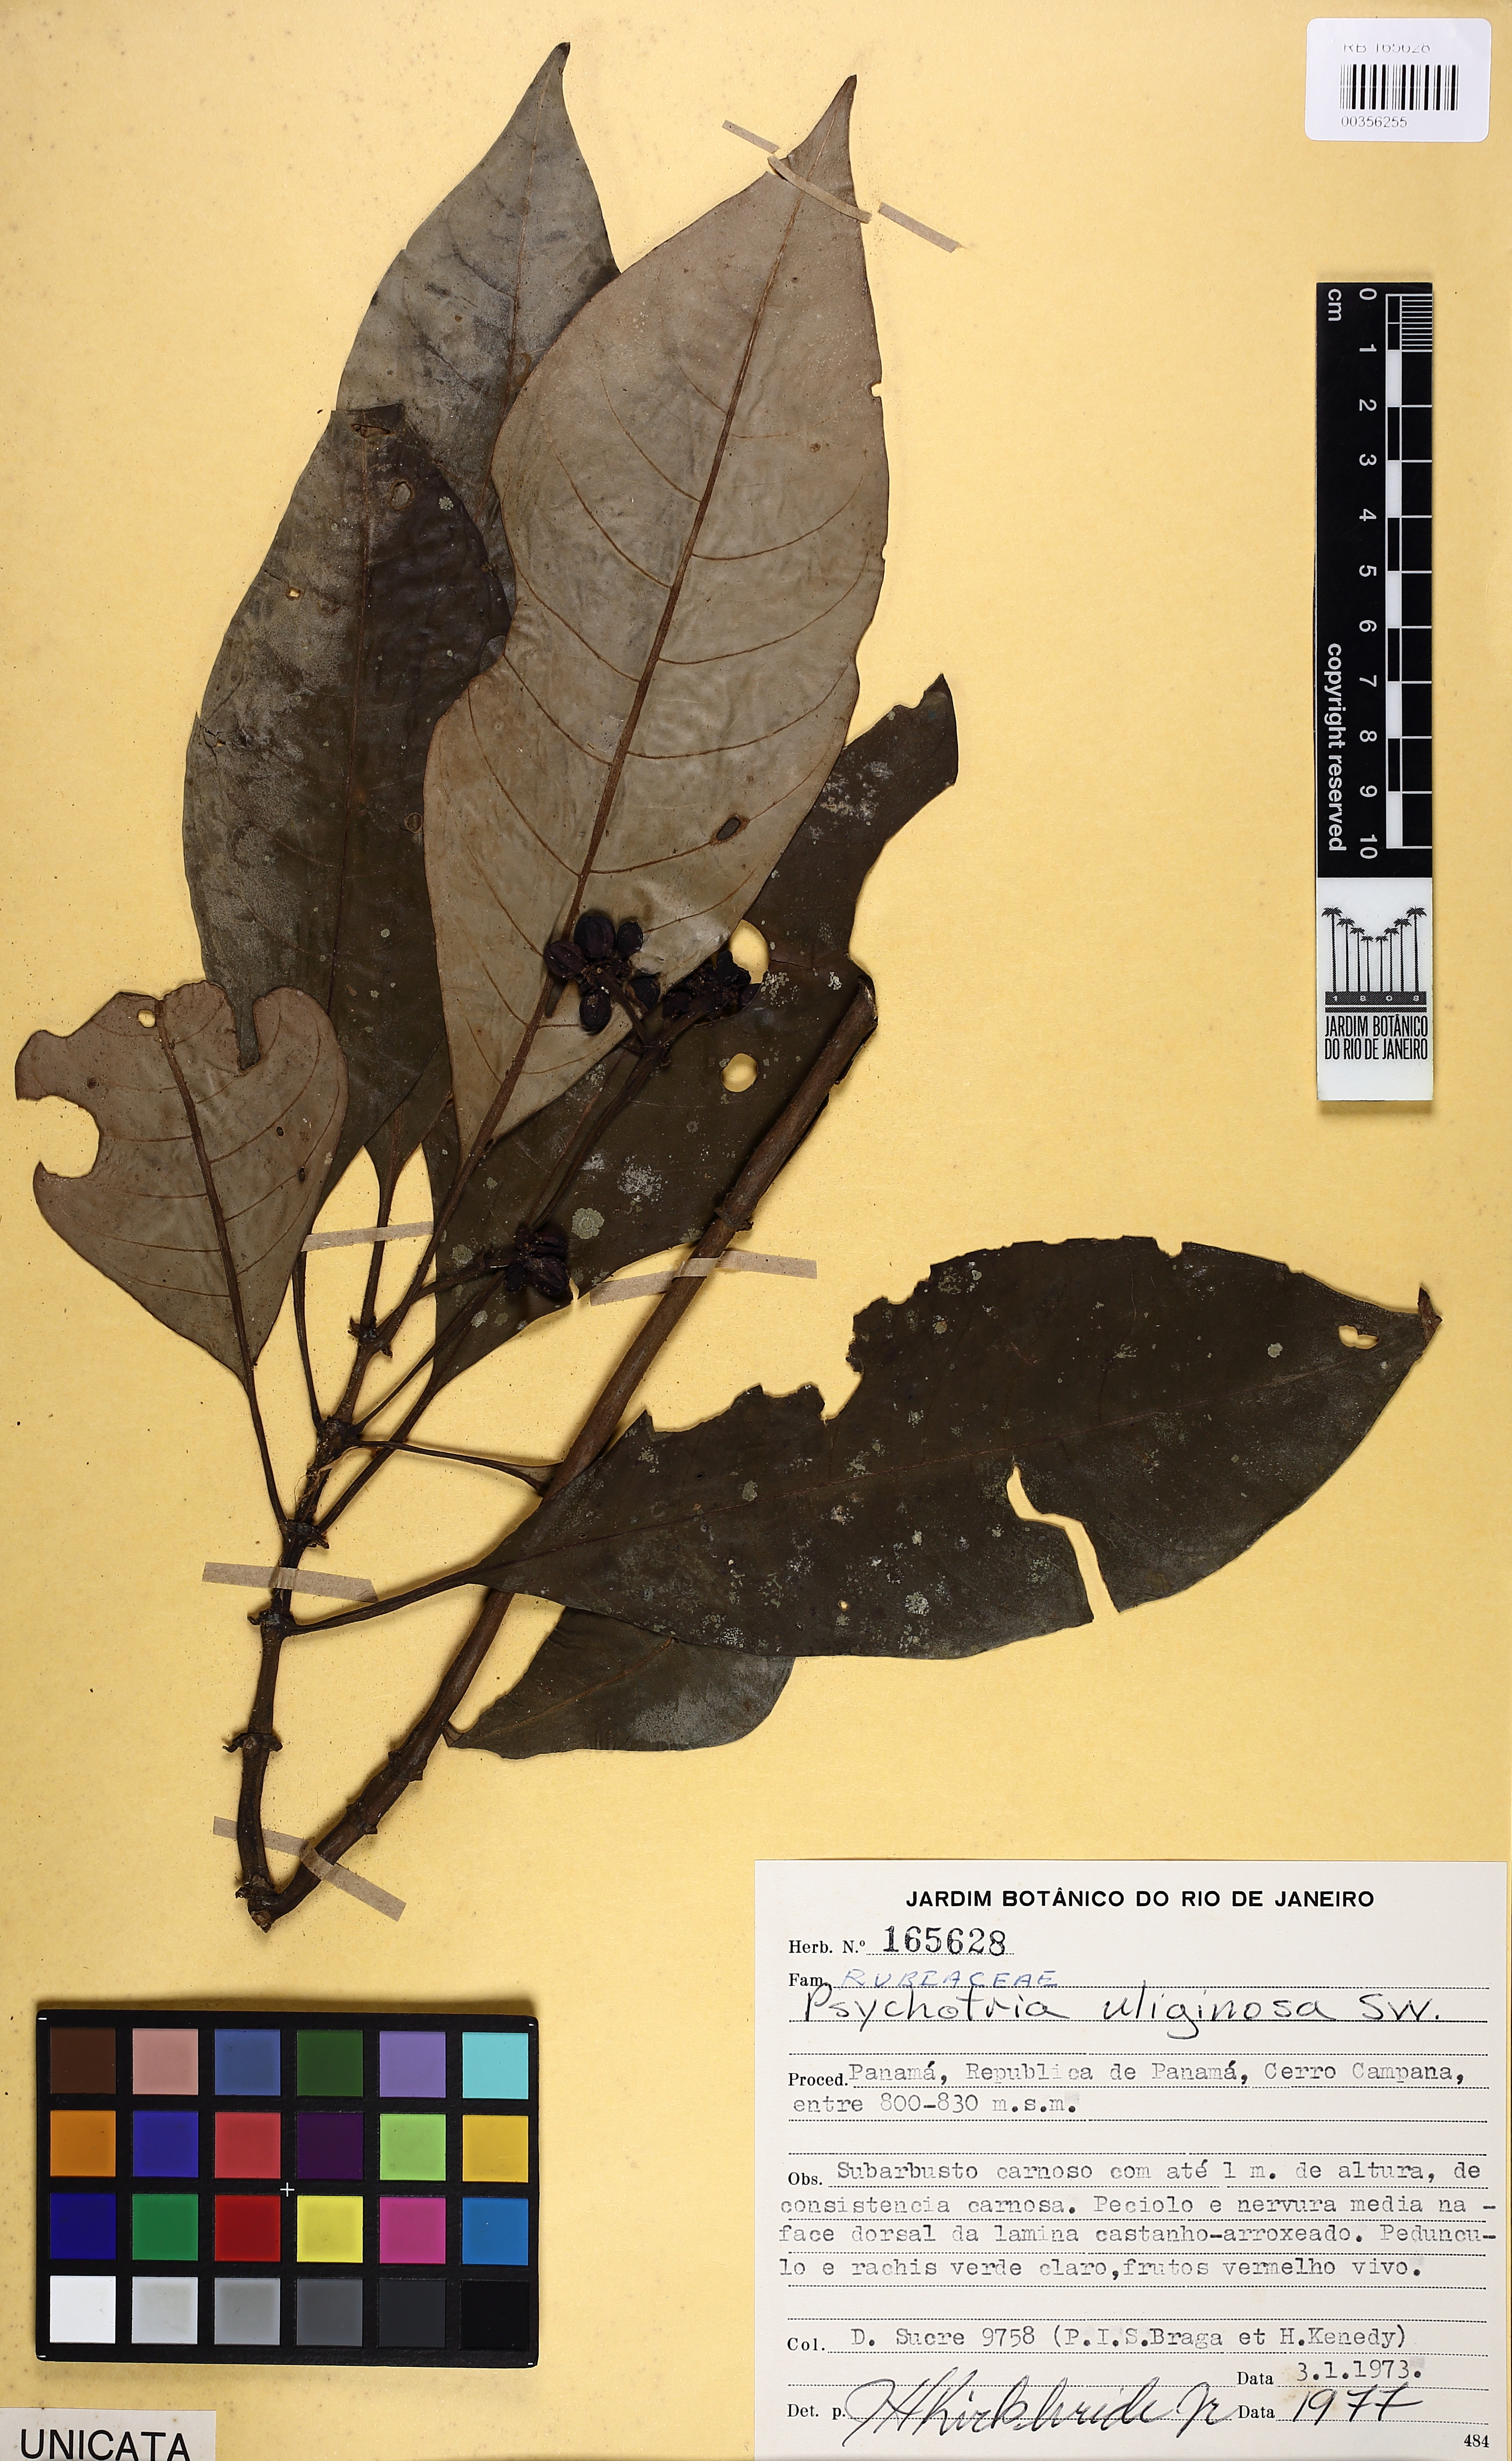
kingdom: Plantae
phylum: Tracheophyta
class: Magnoliopsida
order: Gentianales
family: Rubiaceae
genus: Notopleura
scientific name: Notopleura uliginosa
